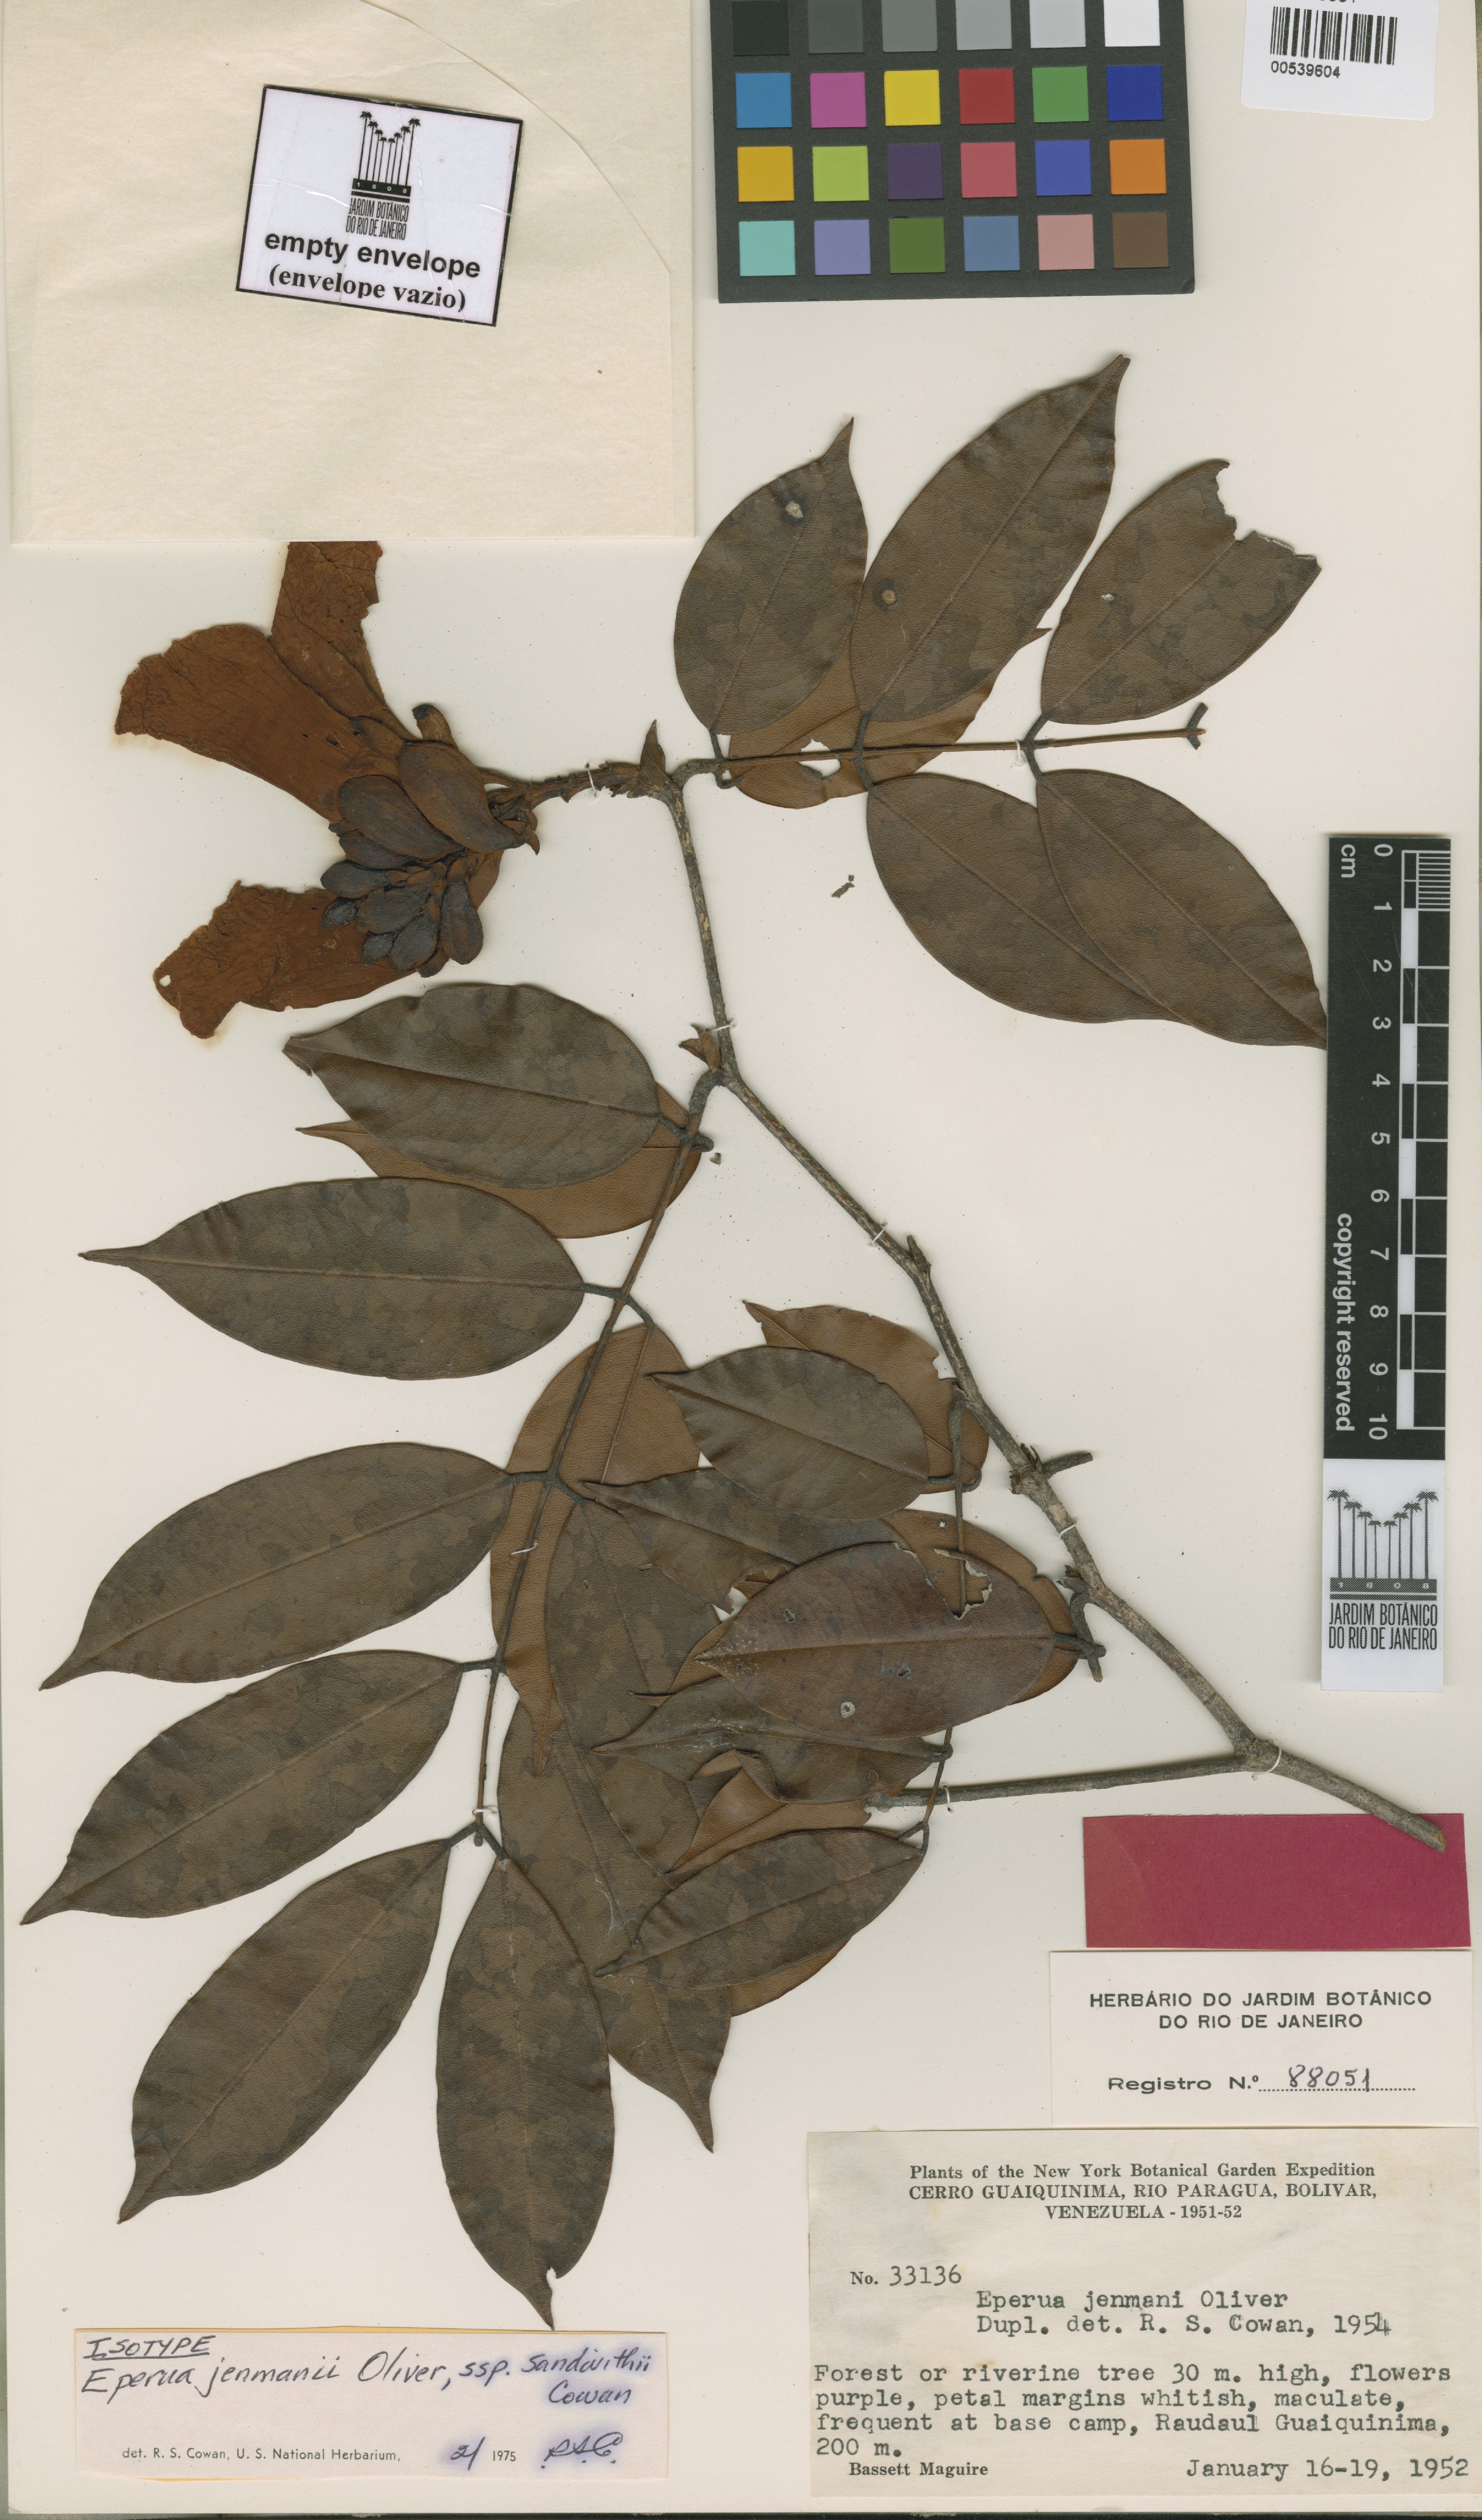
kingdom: Plantae
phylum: Tracheophyta
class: Magnoliopsida
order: Fabales
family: Fabaceae
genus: Eperua
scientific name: Eperua jenmanii
